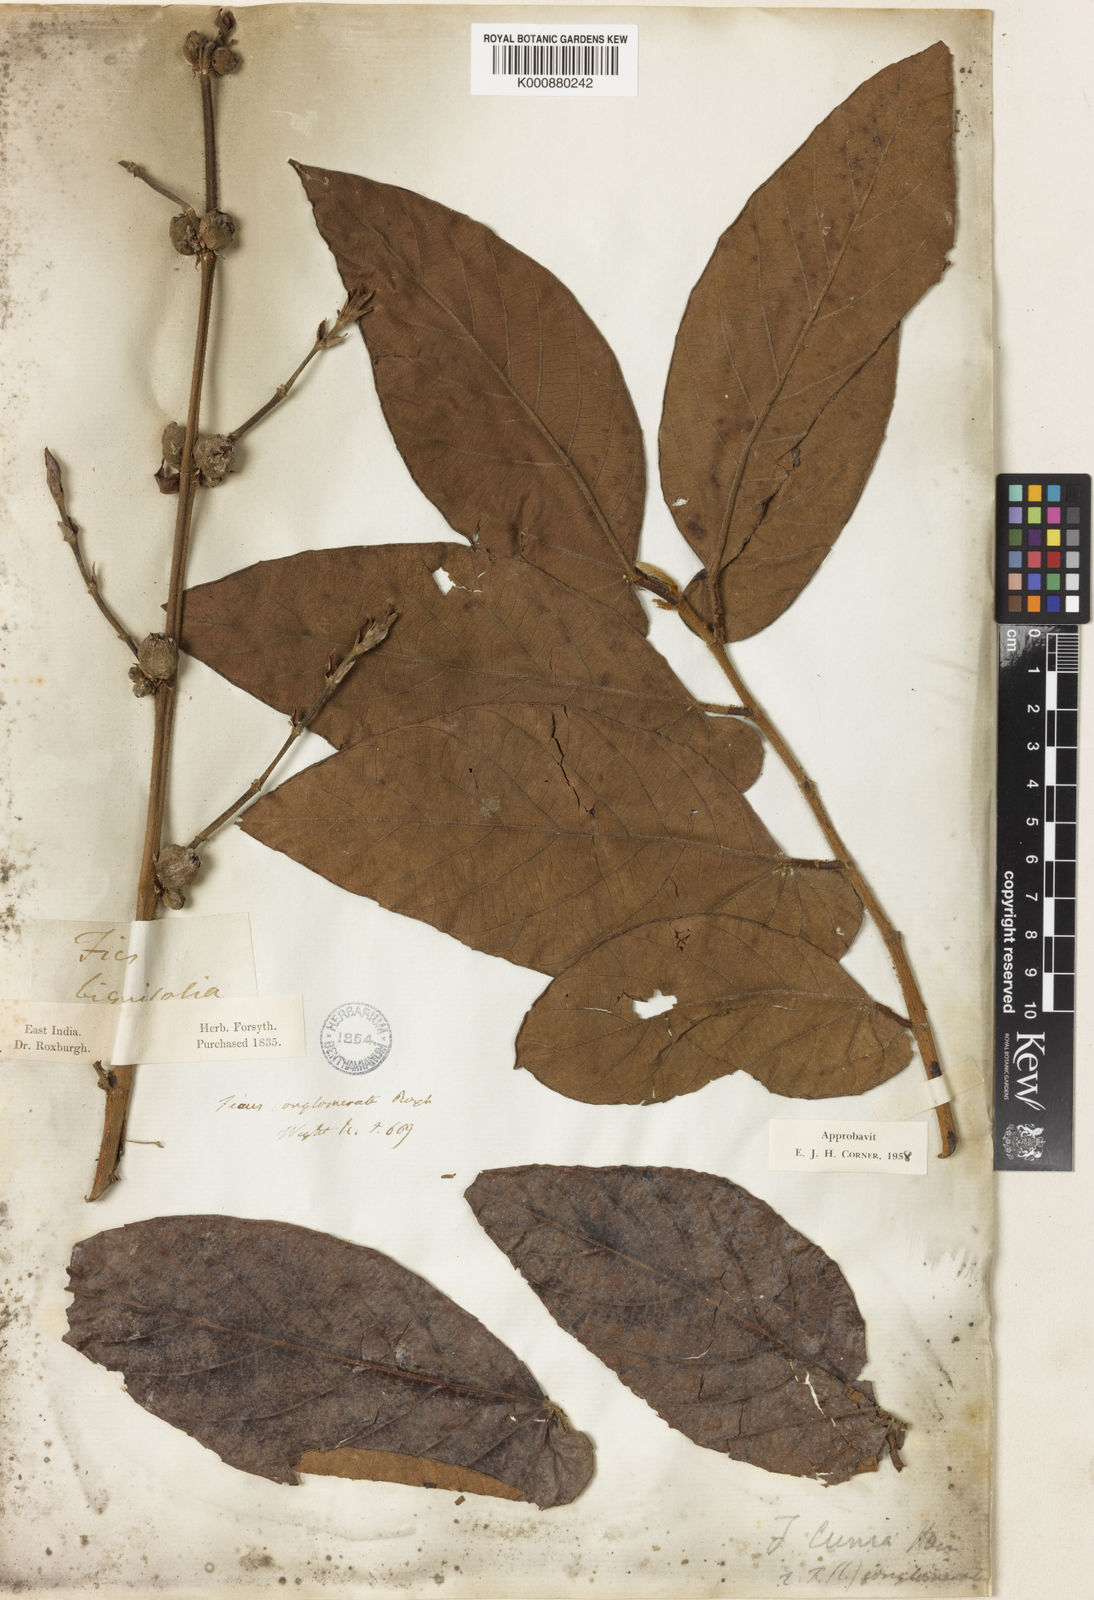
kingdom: Plantae
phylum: Tracheophyta
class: Magnoliopsida
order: Rosales
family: Moraceae
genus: Ficus
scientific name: Ficus semicordata
